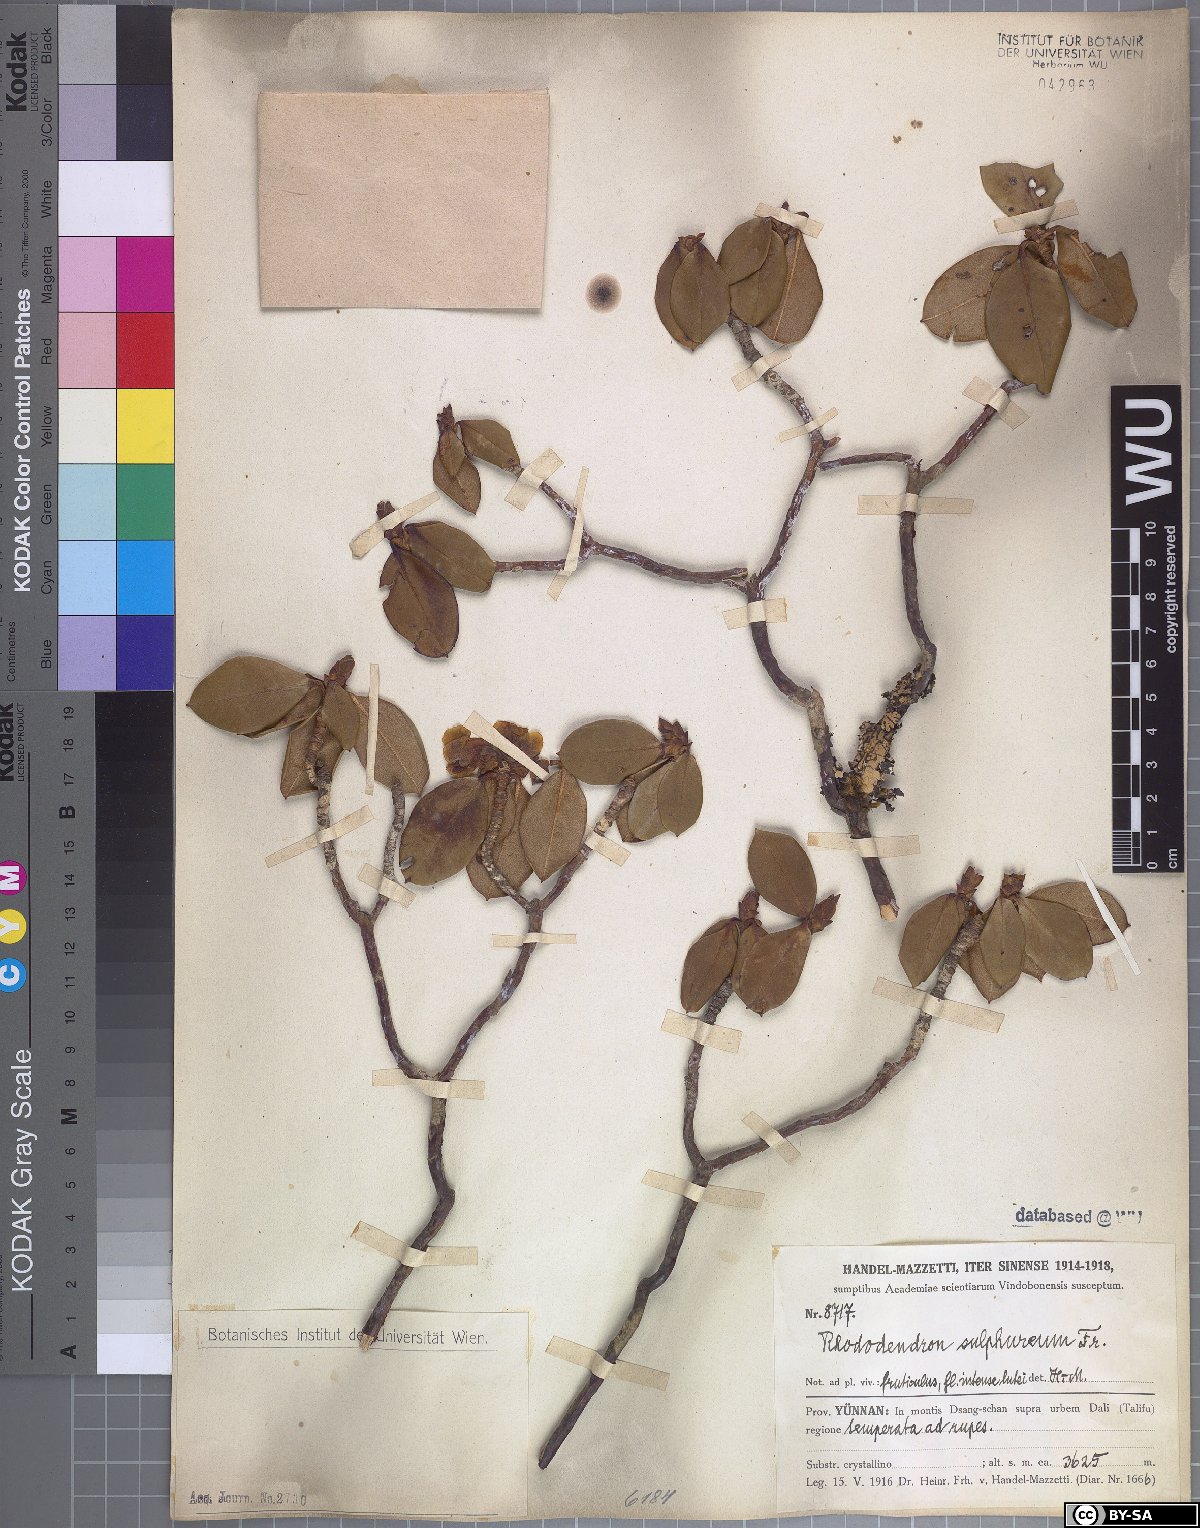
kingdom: Plantae
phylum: Tracheophyta
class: Magnoliopsida
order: Ericales
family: Ericaceae
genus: Rhododendron
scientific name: Rhododendron sulfureum
